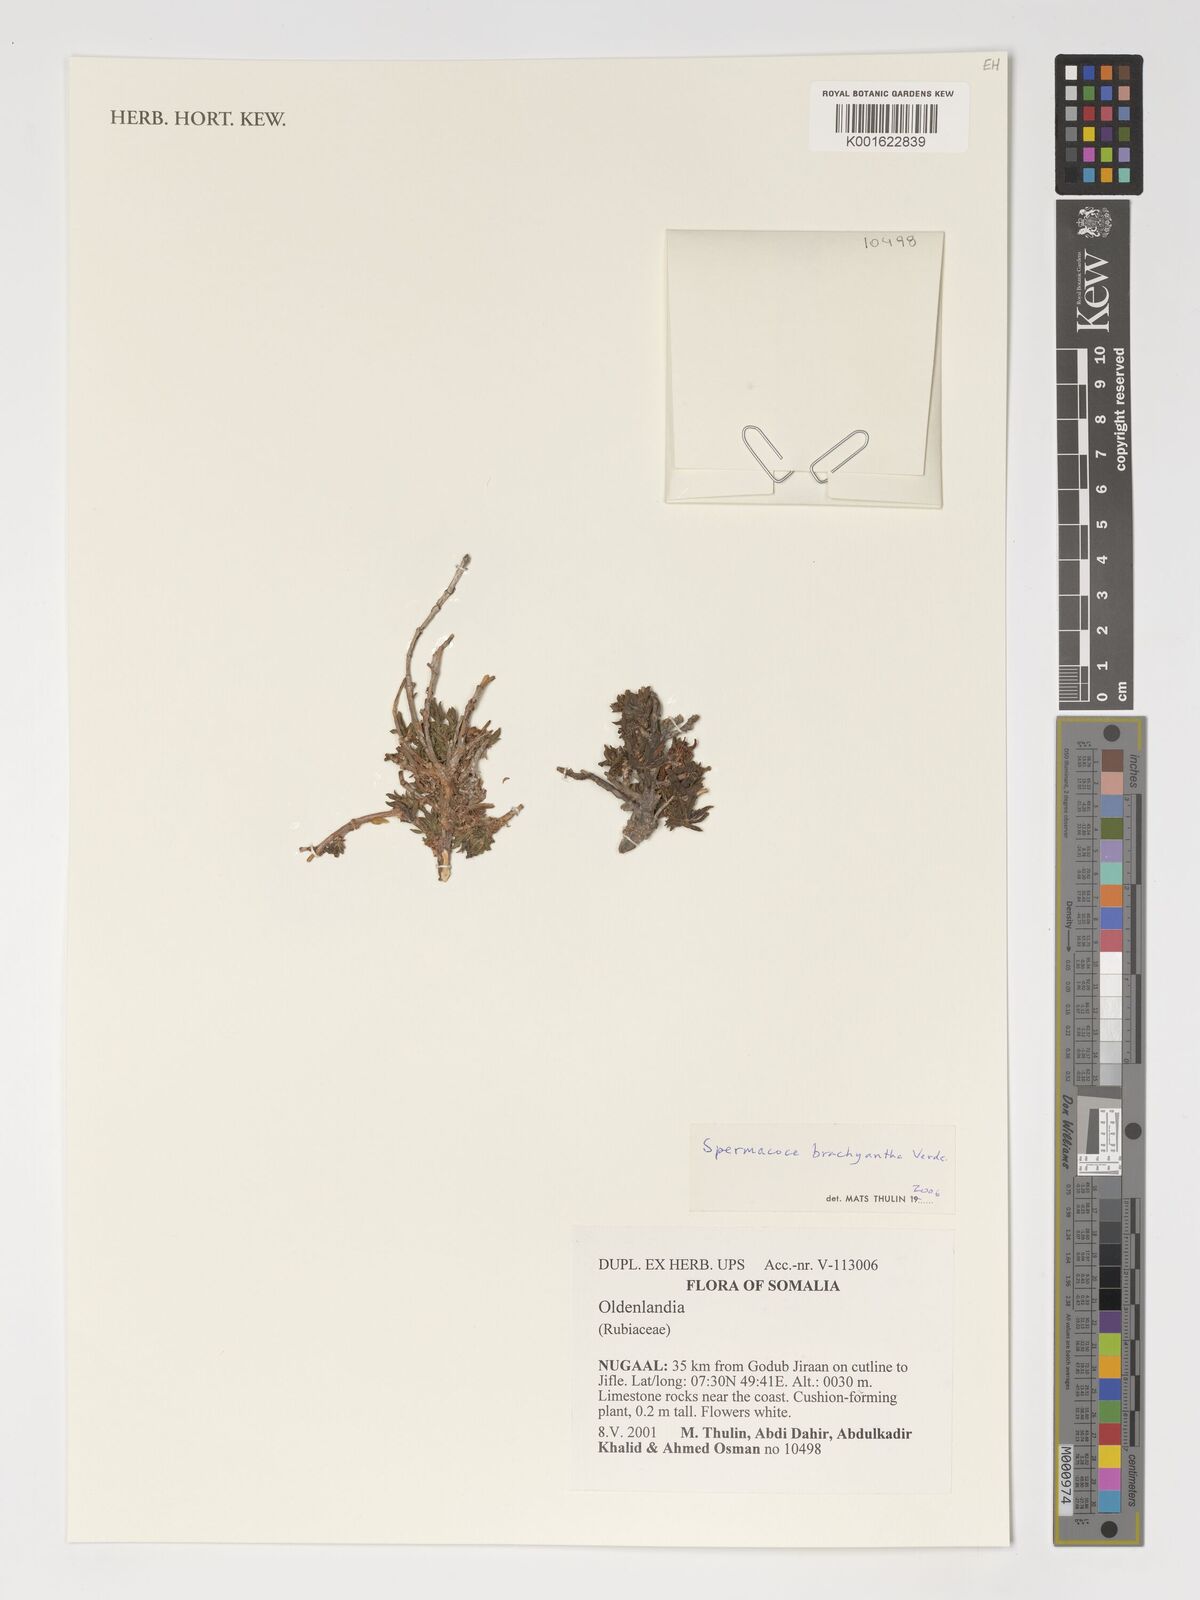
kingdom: Plantae
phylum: Tracheophyta
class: Magnoliopsida
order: Gentianales
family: Rubiaceae
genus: Spermacoce
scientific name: Spermacoce brachyantha
